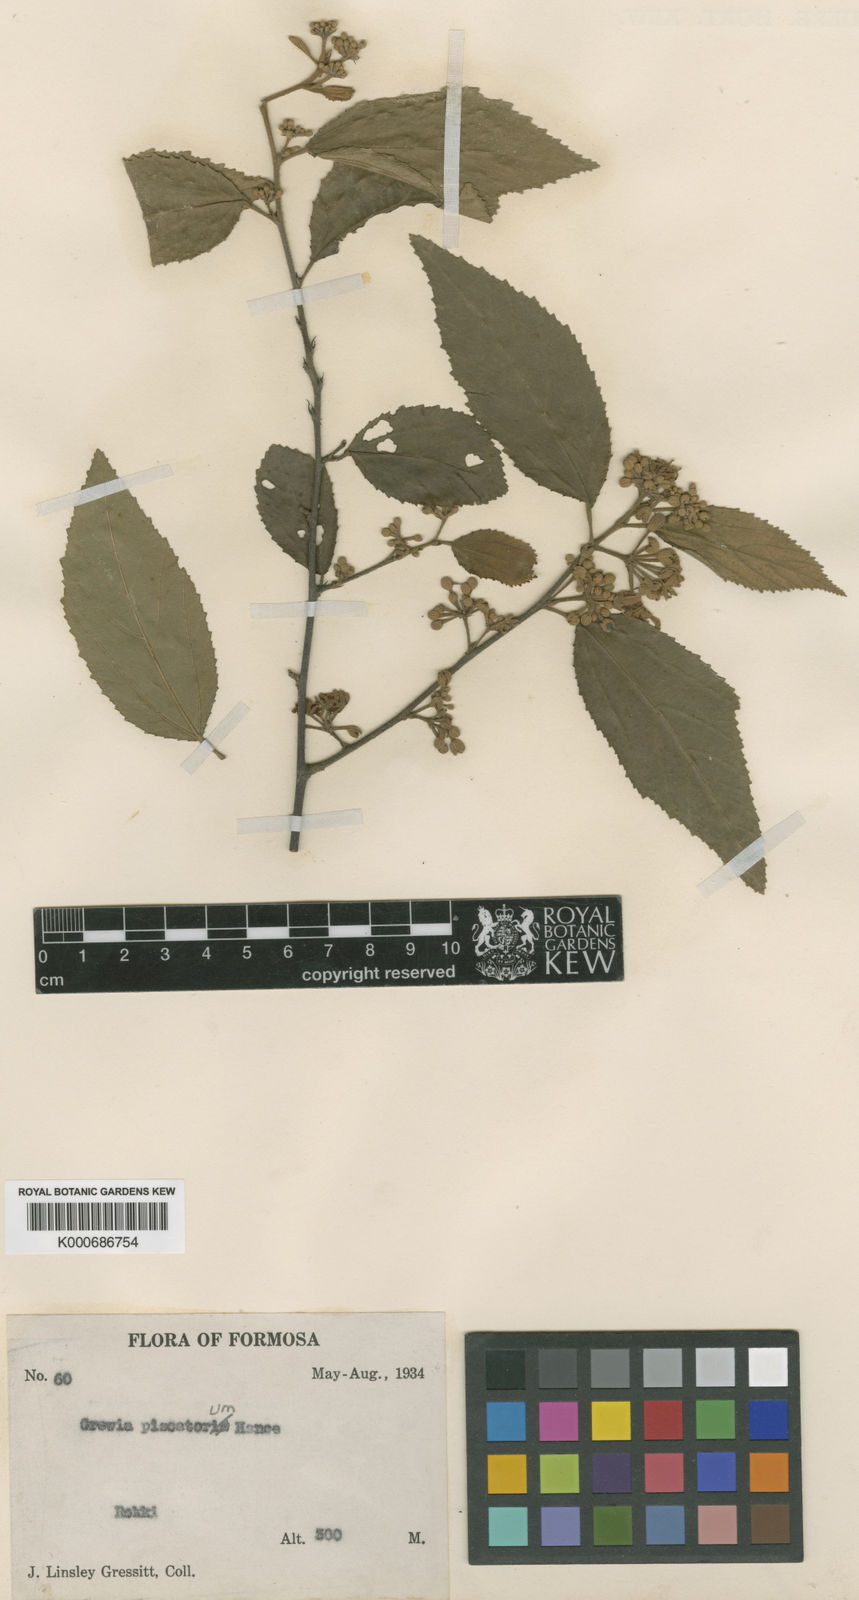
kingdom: Plantae
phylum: Tracheophyta
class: Magnoliopsida
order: Malvales
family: Malvaceae
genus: Grewia
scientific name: Grewia piscatorum
